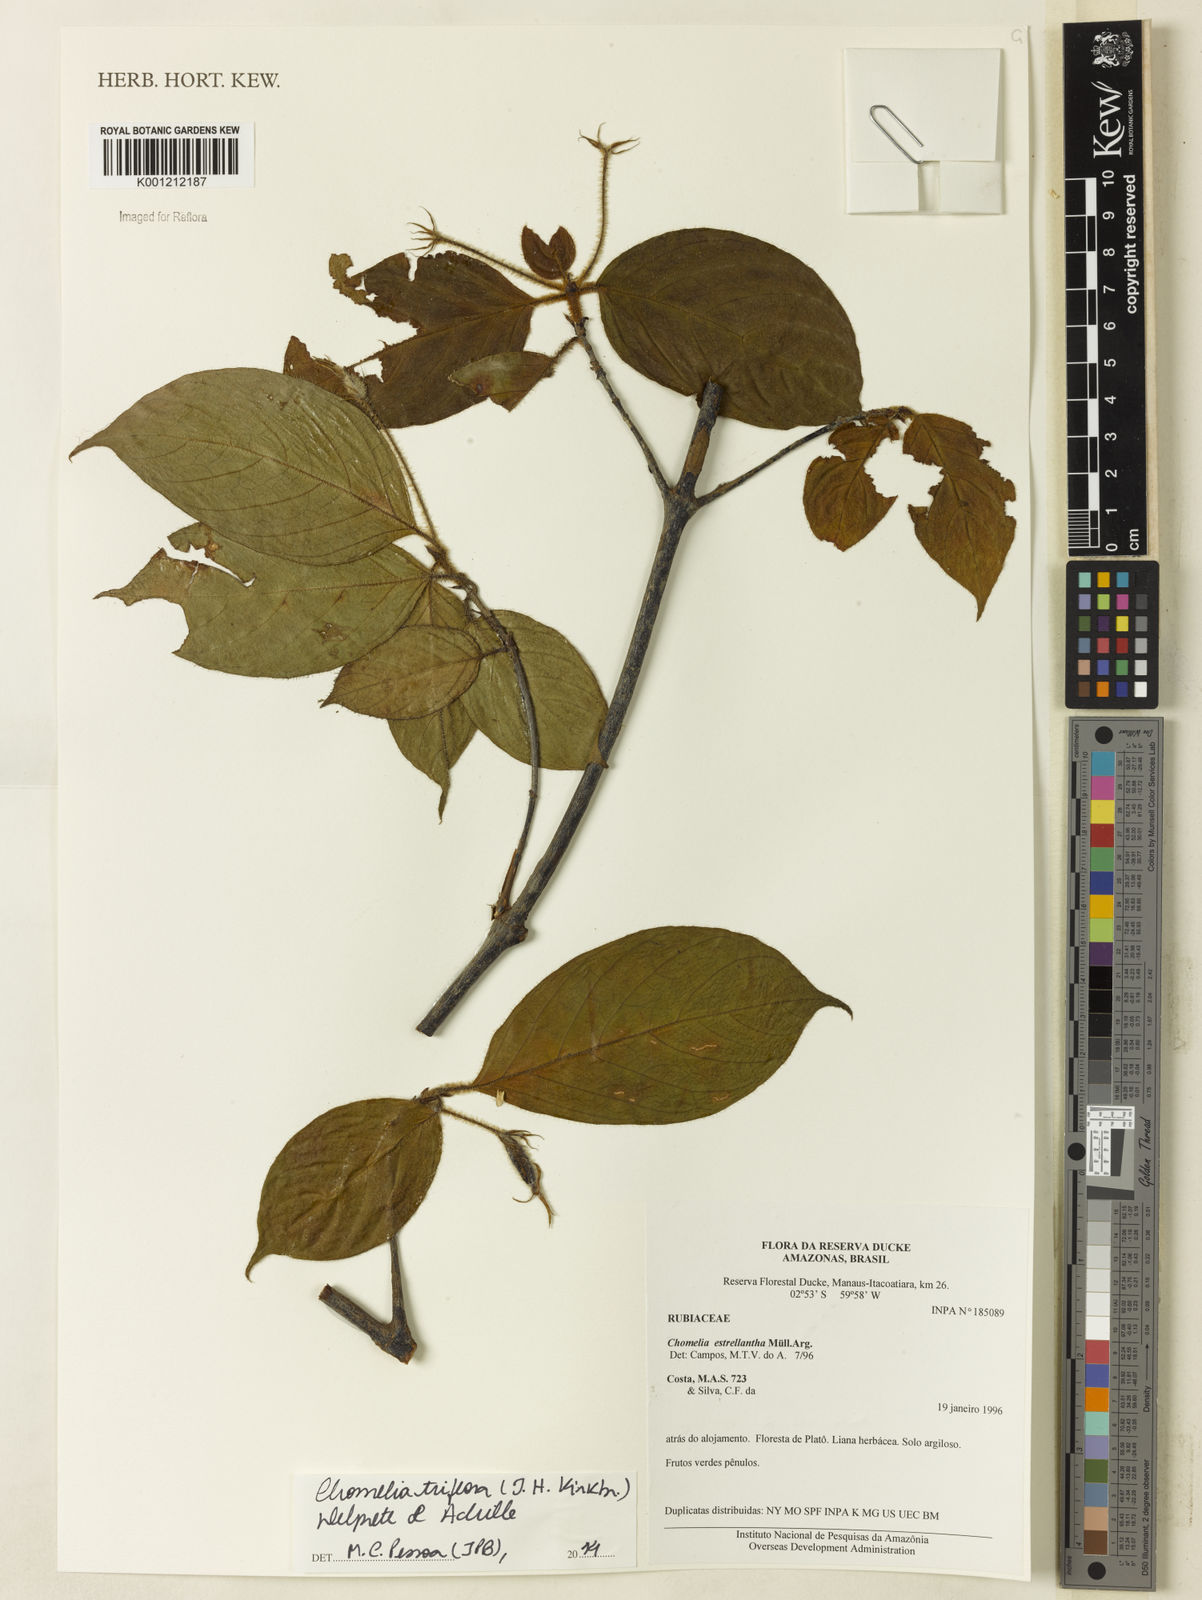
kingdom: Plantae
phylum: Tracheophyta
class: Magnoliopsida
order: Gentianales
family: Rubiaceae
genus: Chomelia
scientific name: Chomelia triflora
